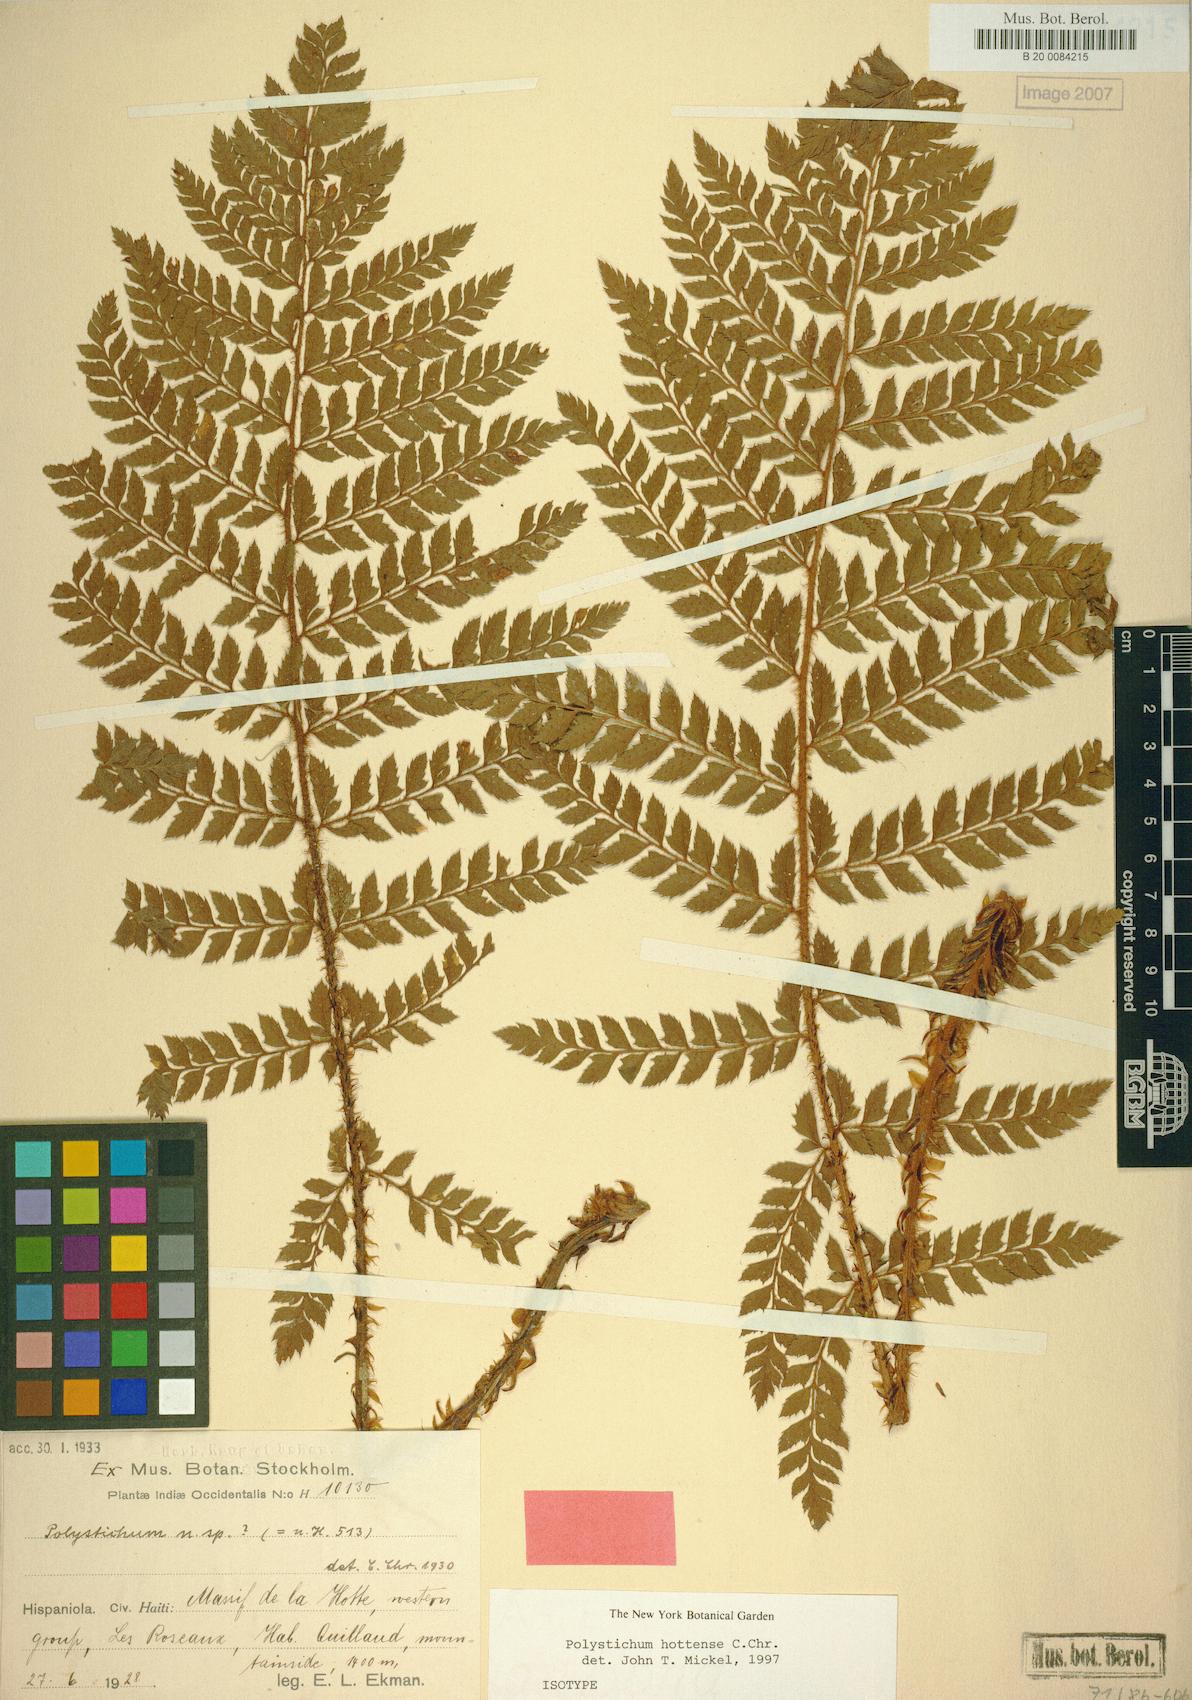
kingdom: Plantae
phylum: Tracheophyta
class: Polypodiopsida
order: Polypodiales
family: Dryopteridaceae
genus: Polystichum
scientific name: Polystichum platyphyllum
